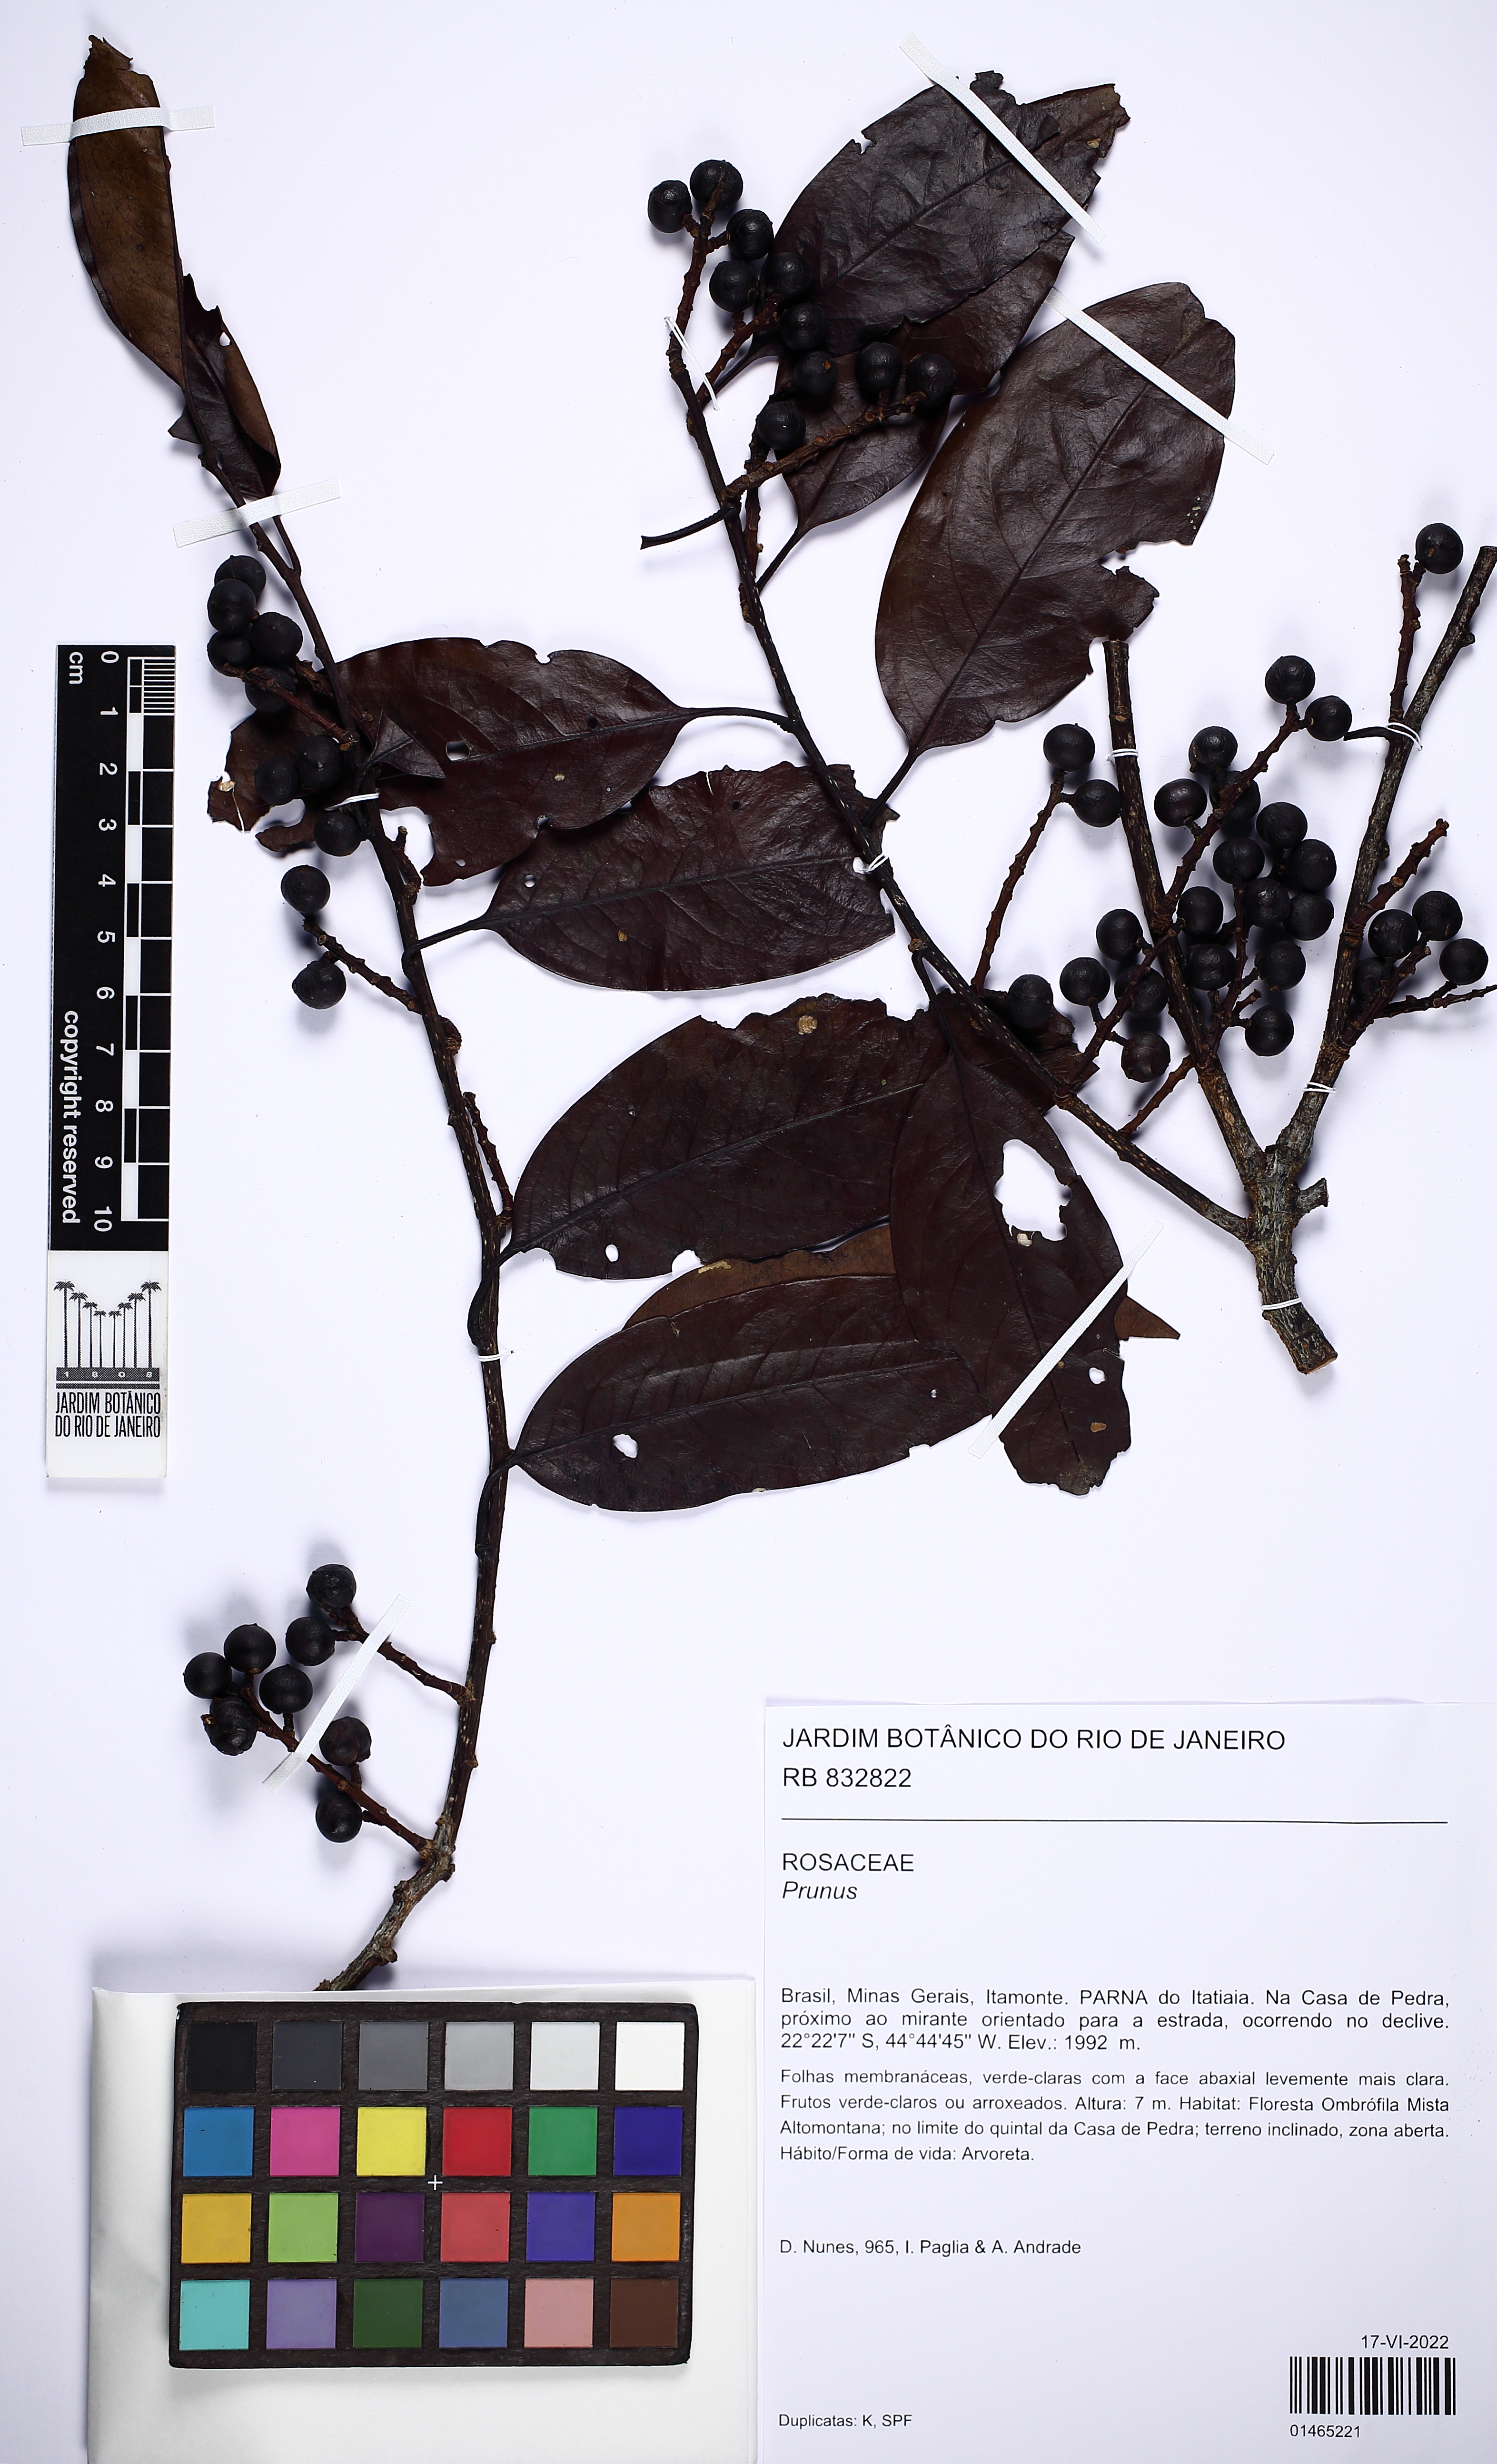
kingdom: Plantae
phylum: Tracheophyta
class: Magnoliopsida
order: Rosales
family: Rosaceae
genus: Prunus
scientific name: Prunus
